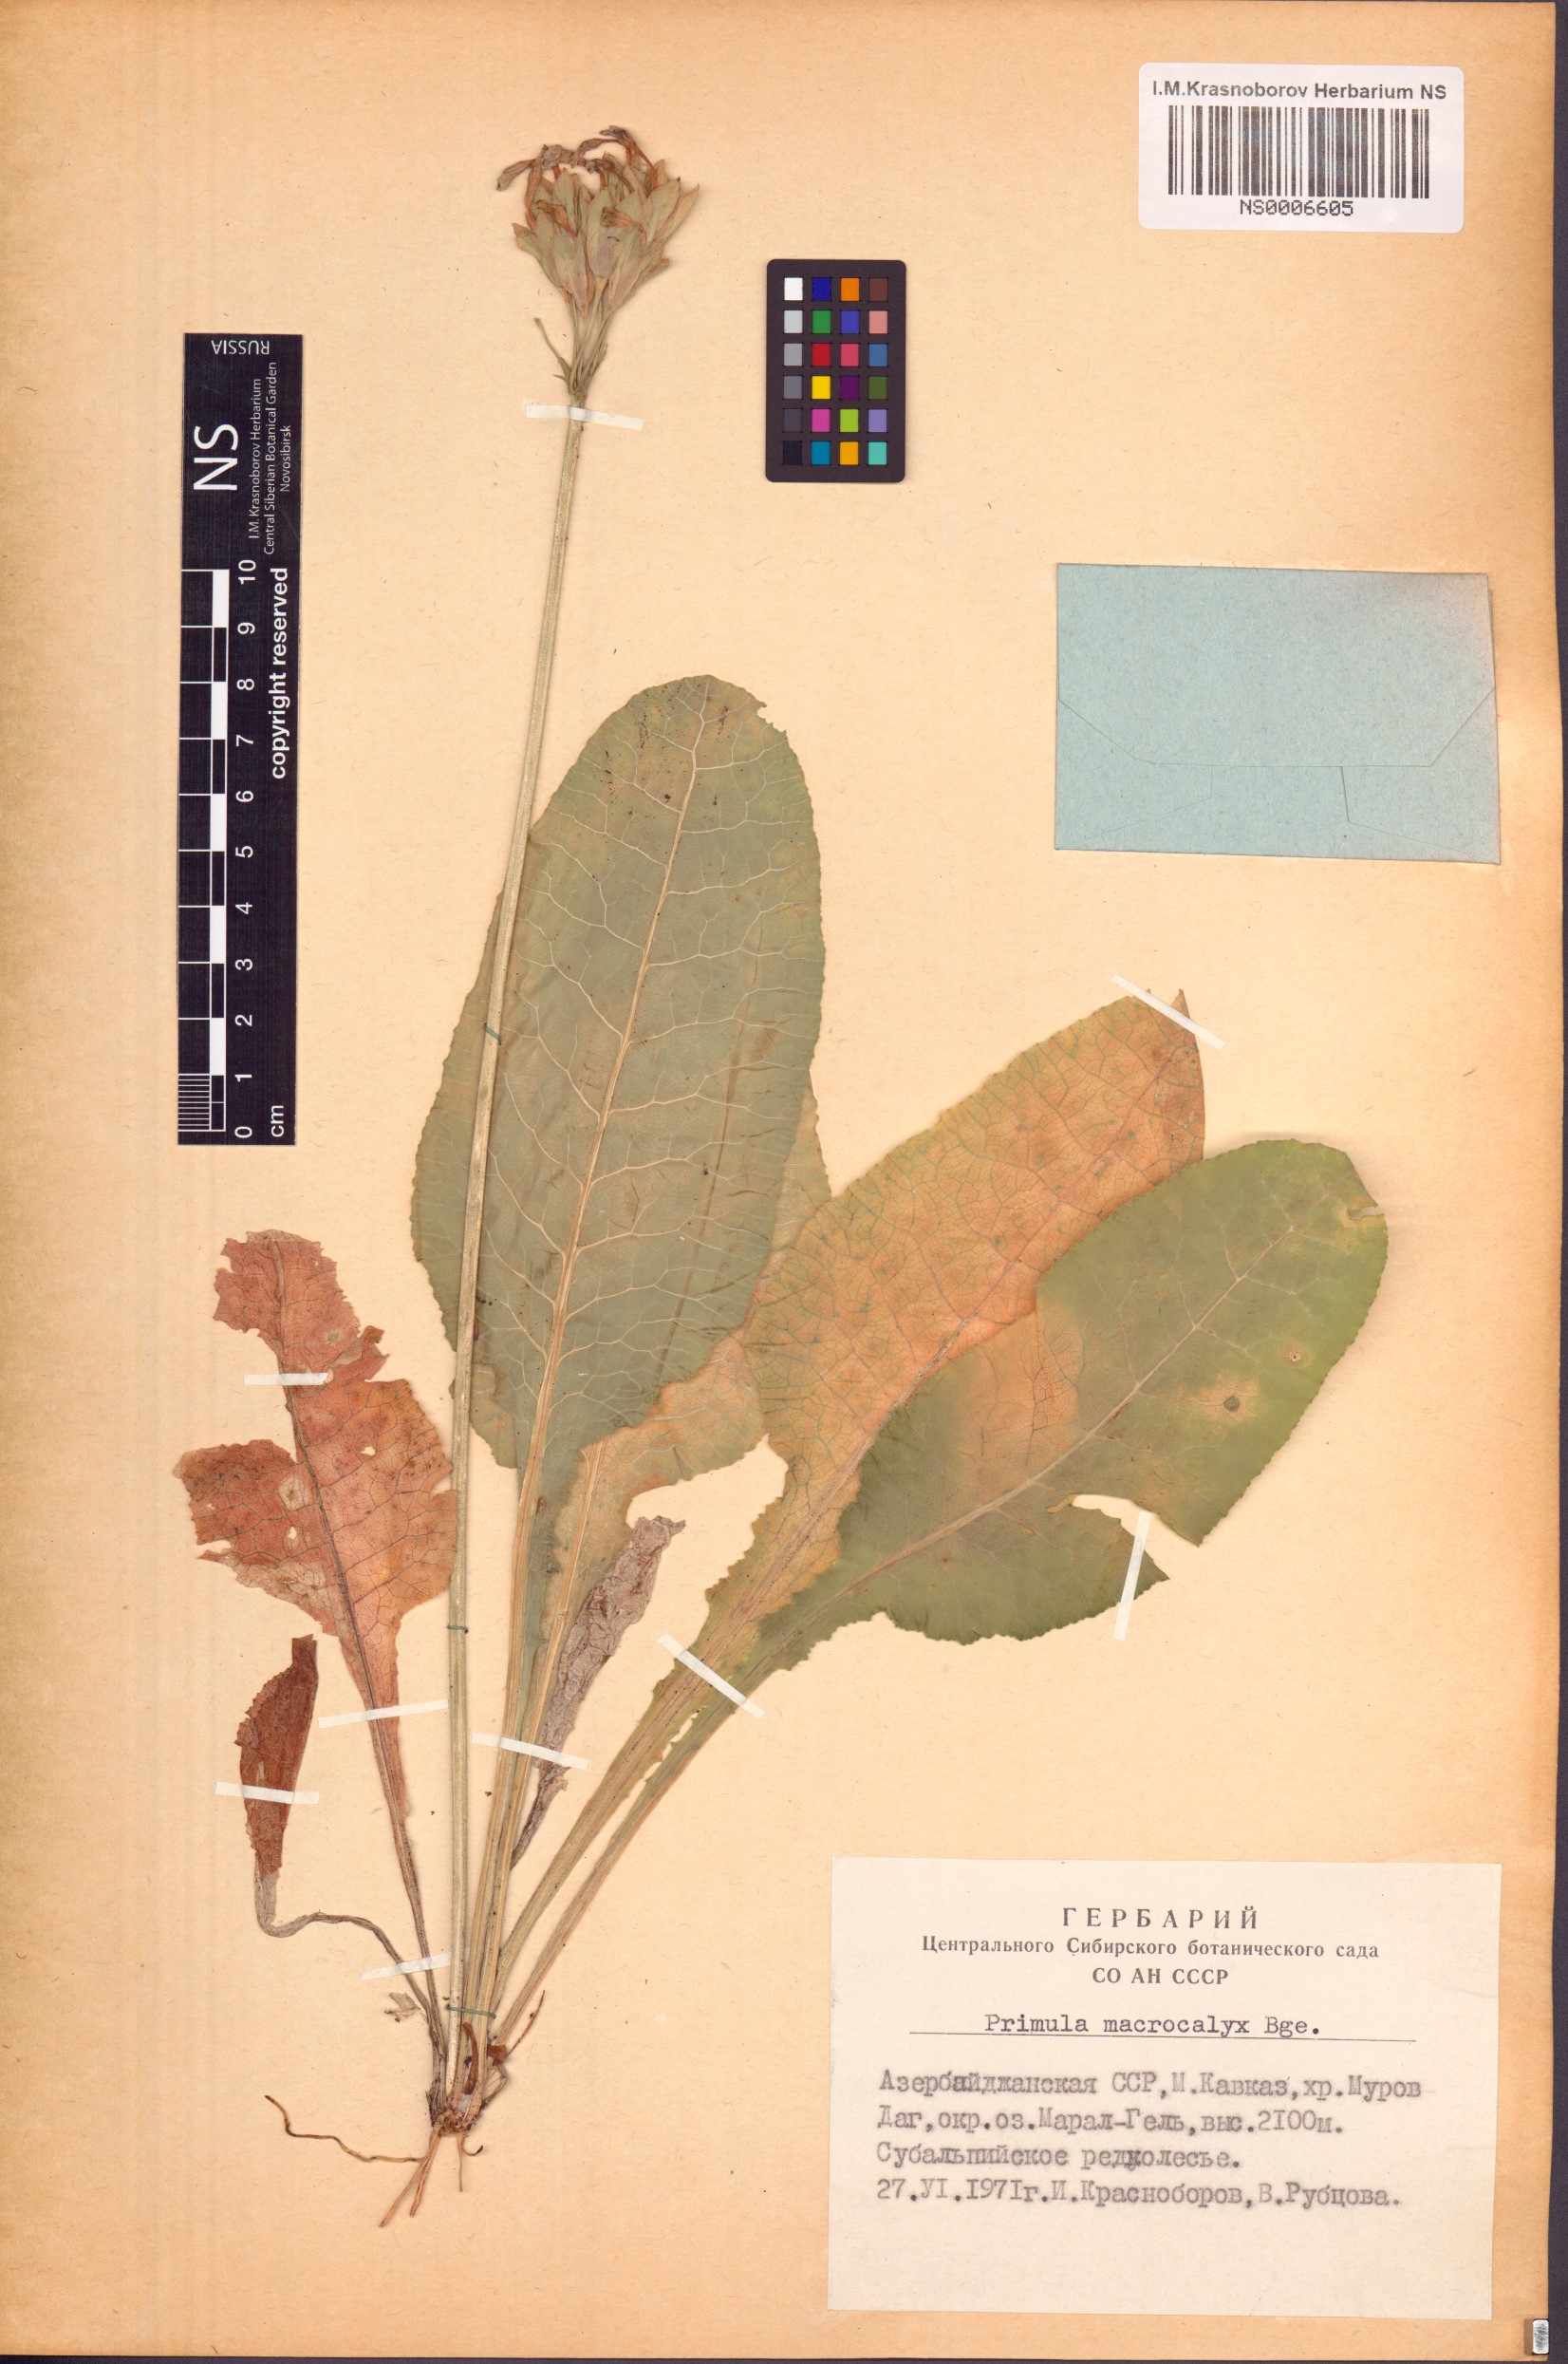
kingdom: Plantae
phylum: Tracheophyta
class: Magnoliopsida
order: Ericales
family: Primulaceae
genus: Primula
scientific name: Primula veris
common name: Cowslip
